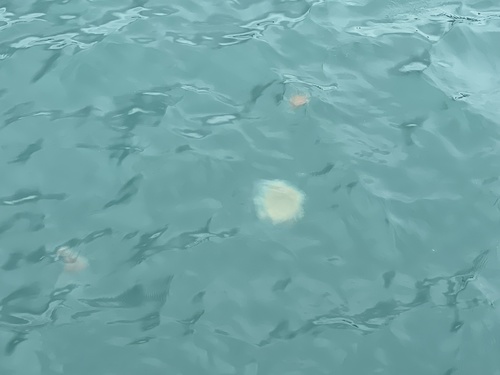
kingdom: Animalia
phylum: Cnidaria
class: Scyphozoa
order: Semaeostomeae
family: Cyaneidae
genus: Cyanea
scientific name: Cyanea nozakii
